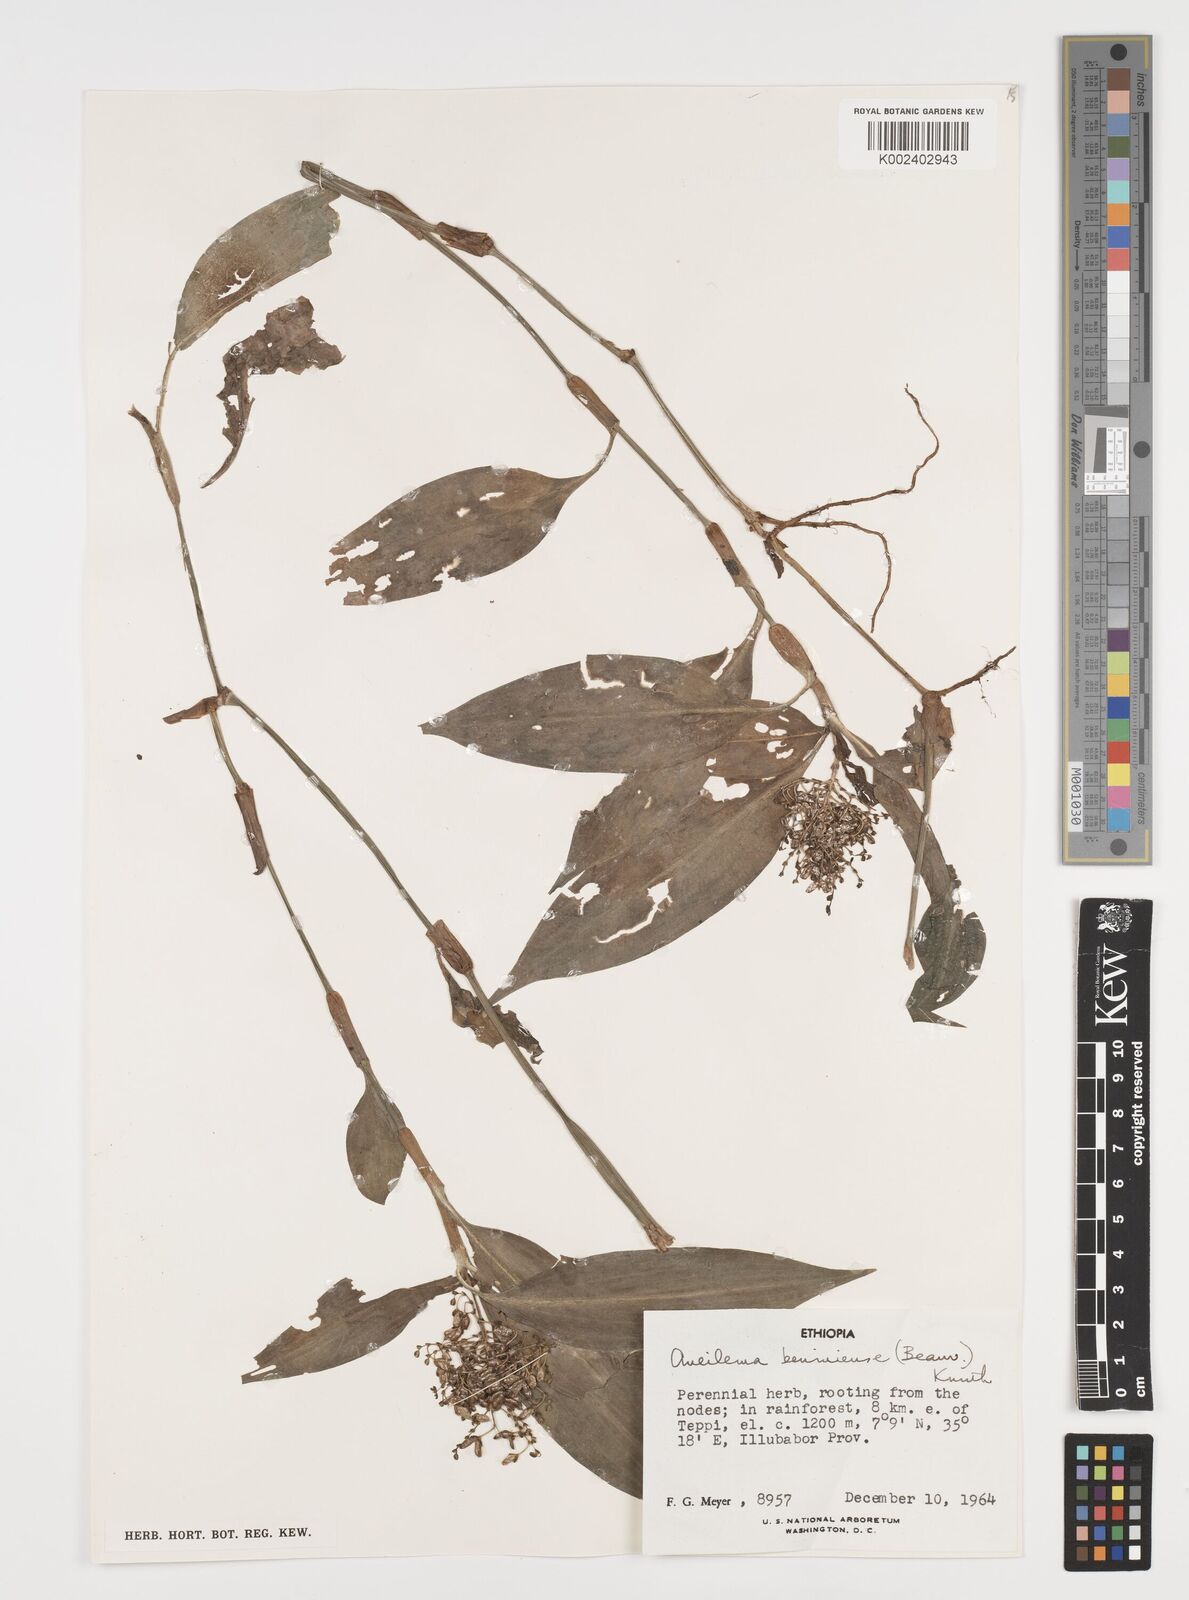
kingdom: Plantae
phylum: Tracheophyta
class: Liliopsida
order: Commelinales
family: Commelinaceae
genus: Aneilema
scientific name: Aneilema beniniense
